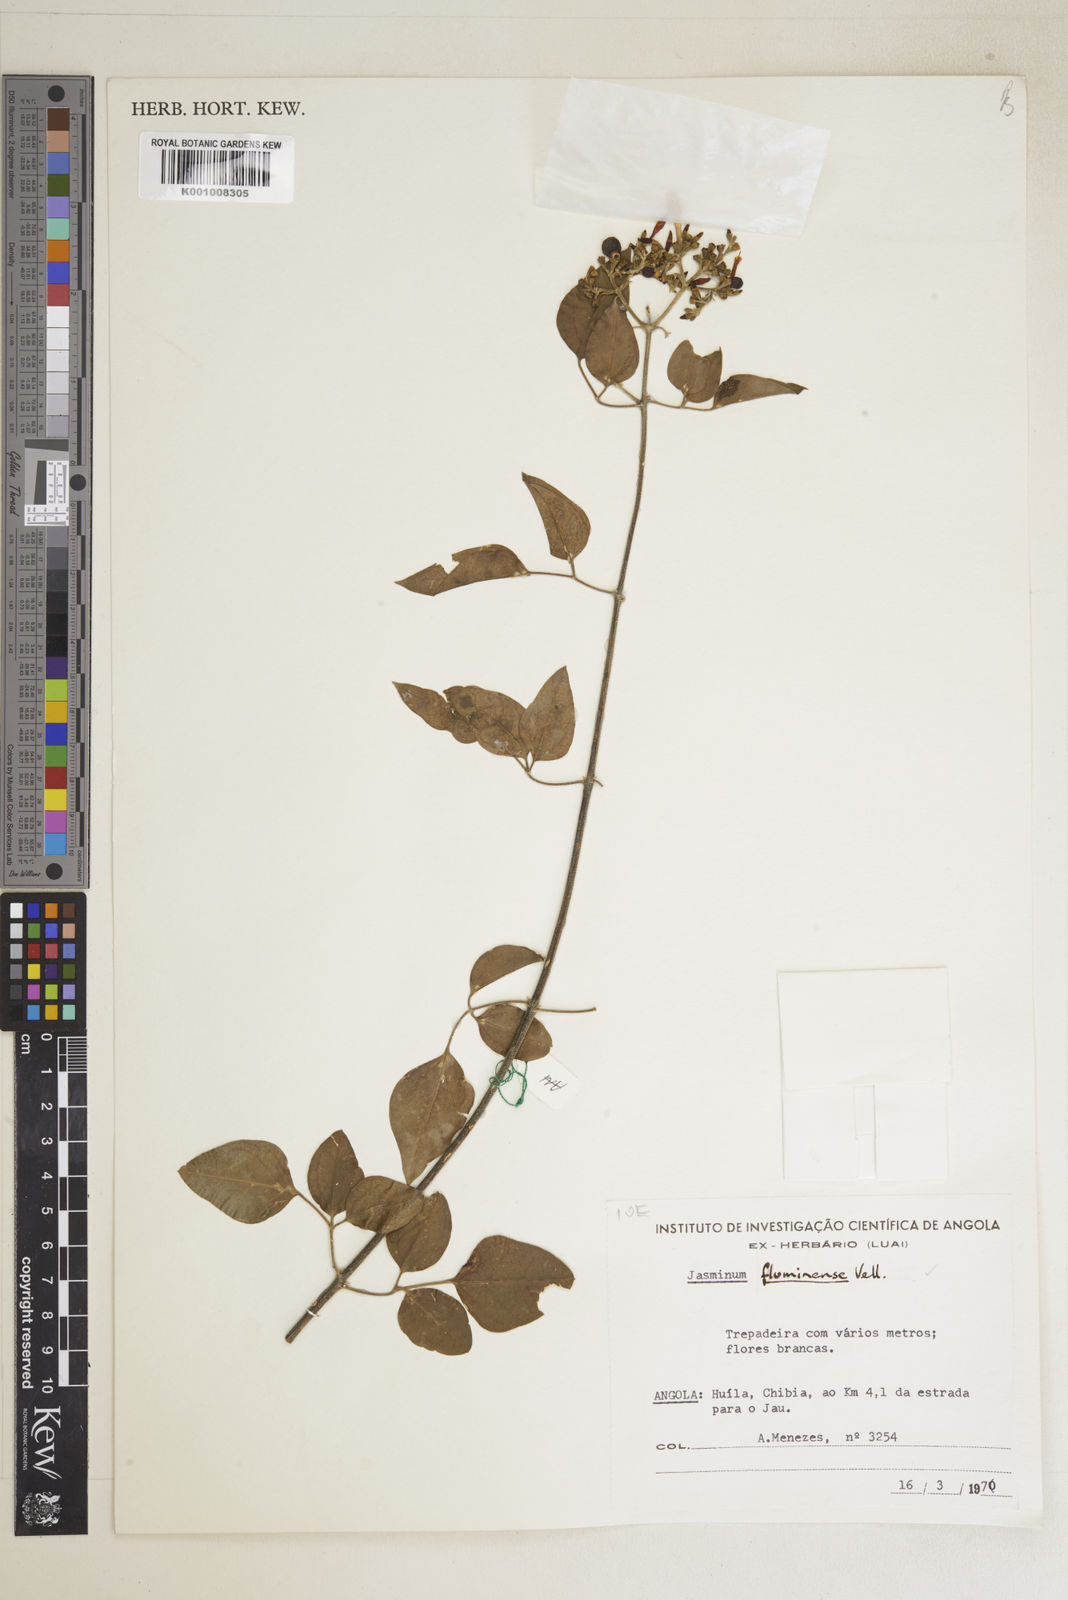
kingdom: Plantae
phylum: Tracheophyta
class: Magnoliopsida
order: Lamiales
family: Oleaceae
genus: Jasminum
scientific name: Jasminum fluminense
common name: Brazilian jasmine
